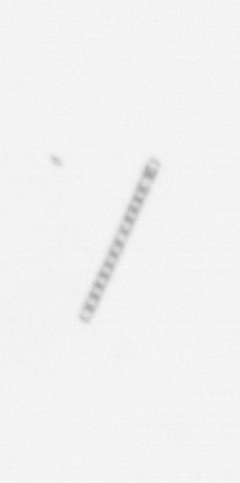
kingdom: Chromista
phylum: Ochrophyta
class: Bacillariophyceae
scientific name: Bacillariophyceae
